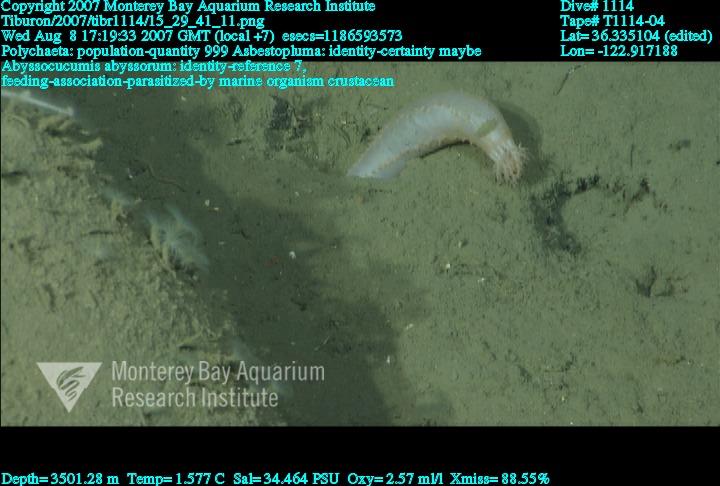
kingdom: Animalia
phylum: Porifera
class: Demospongiae
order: Poecilosclerida
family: Cladorhizidae
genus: Asbestopluma
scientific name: Asbestopluma
